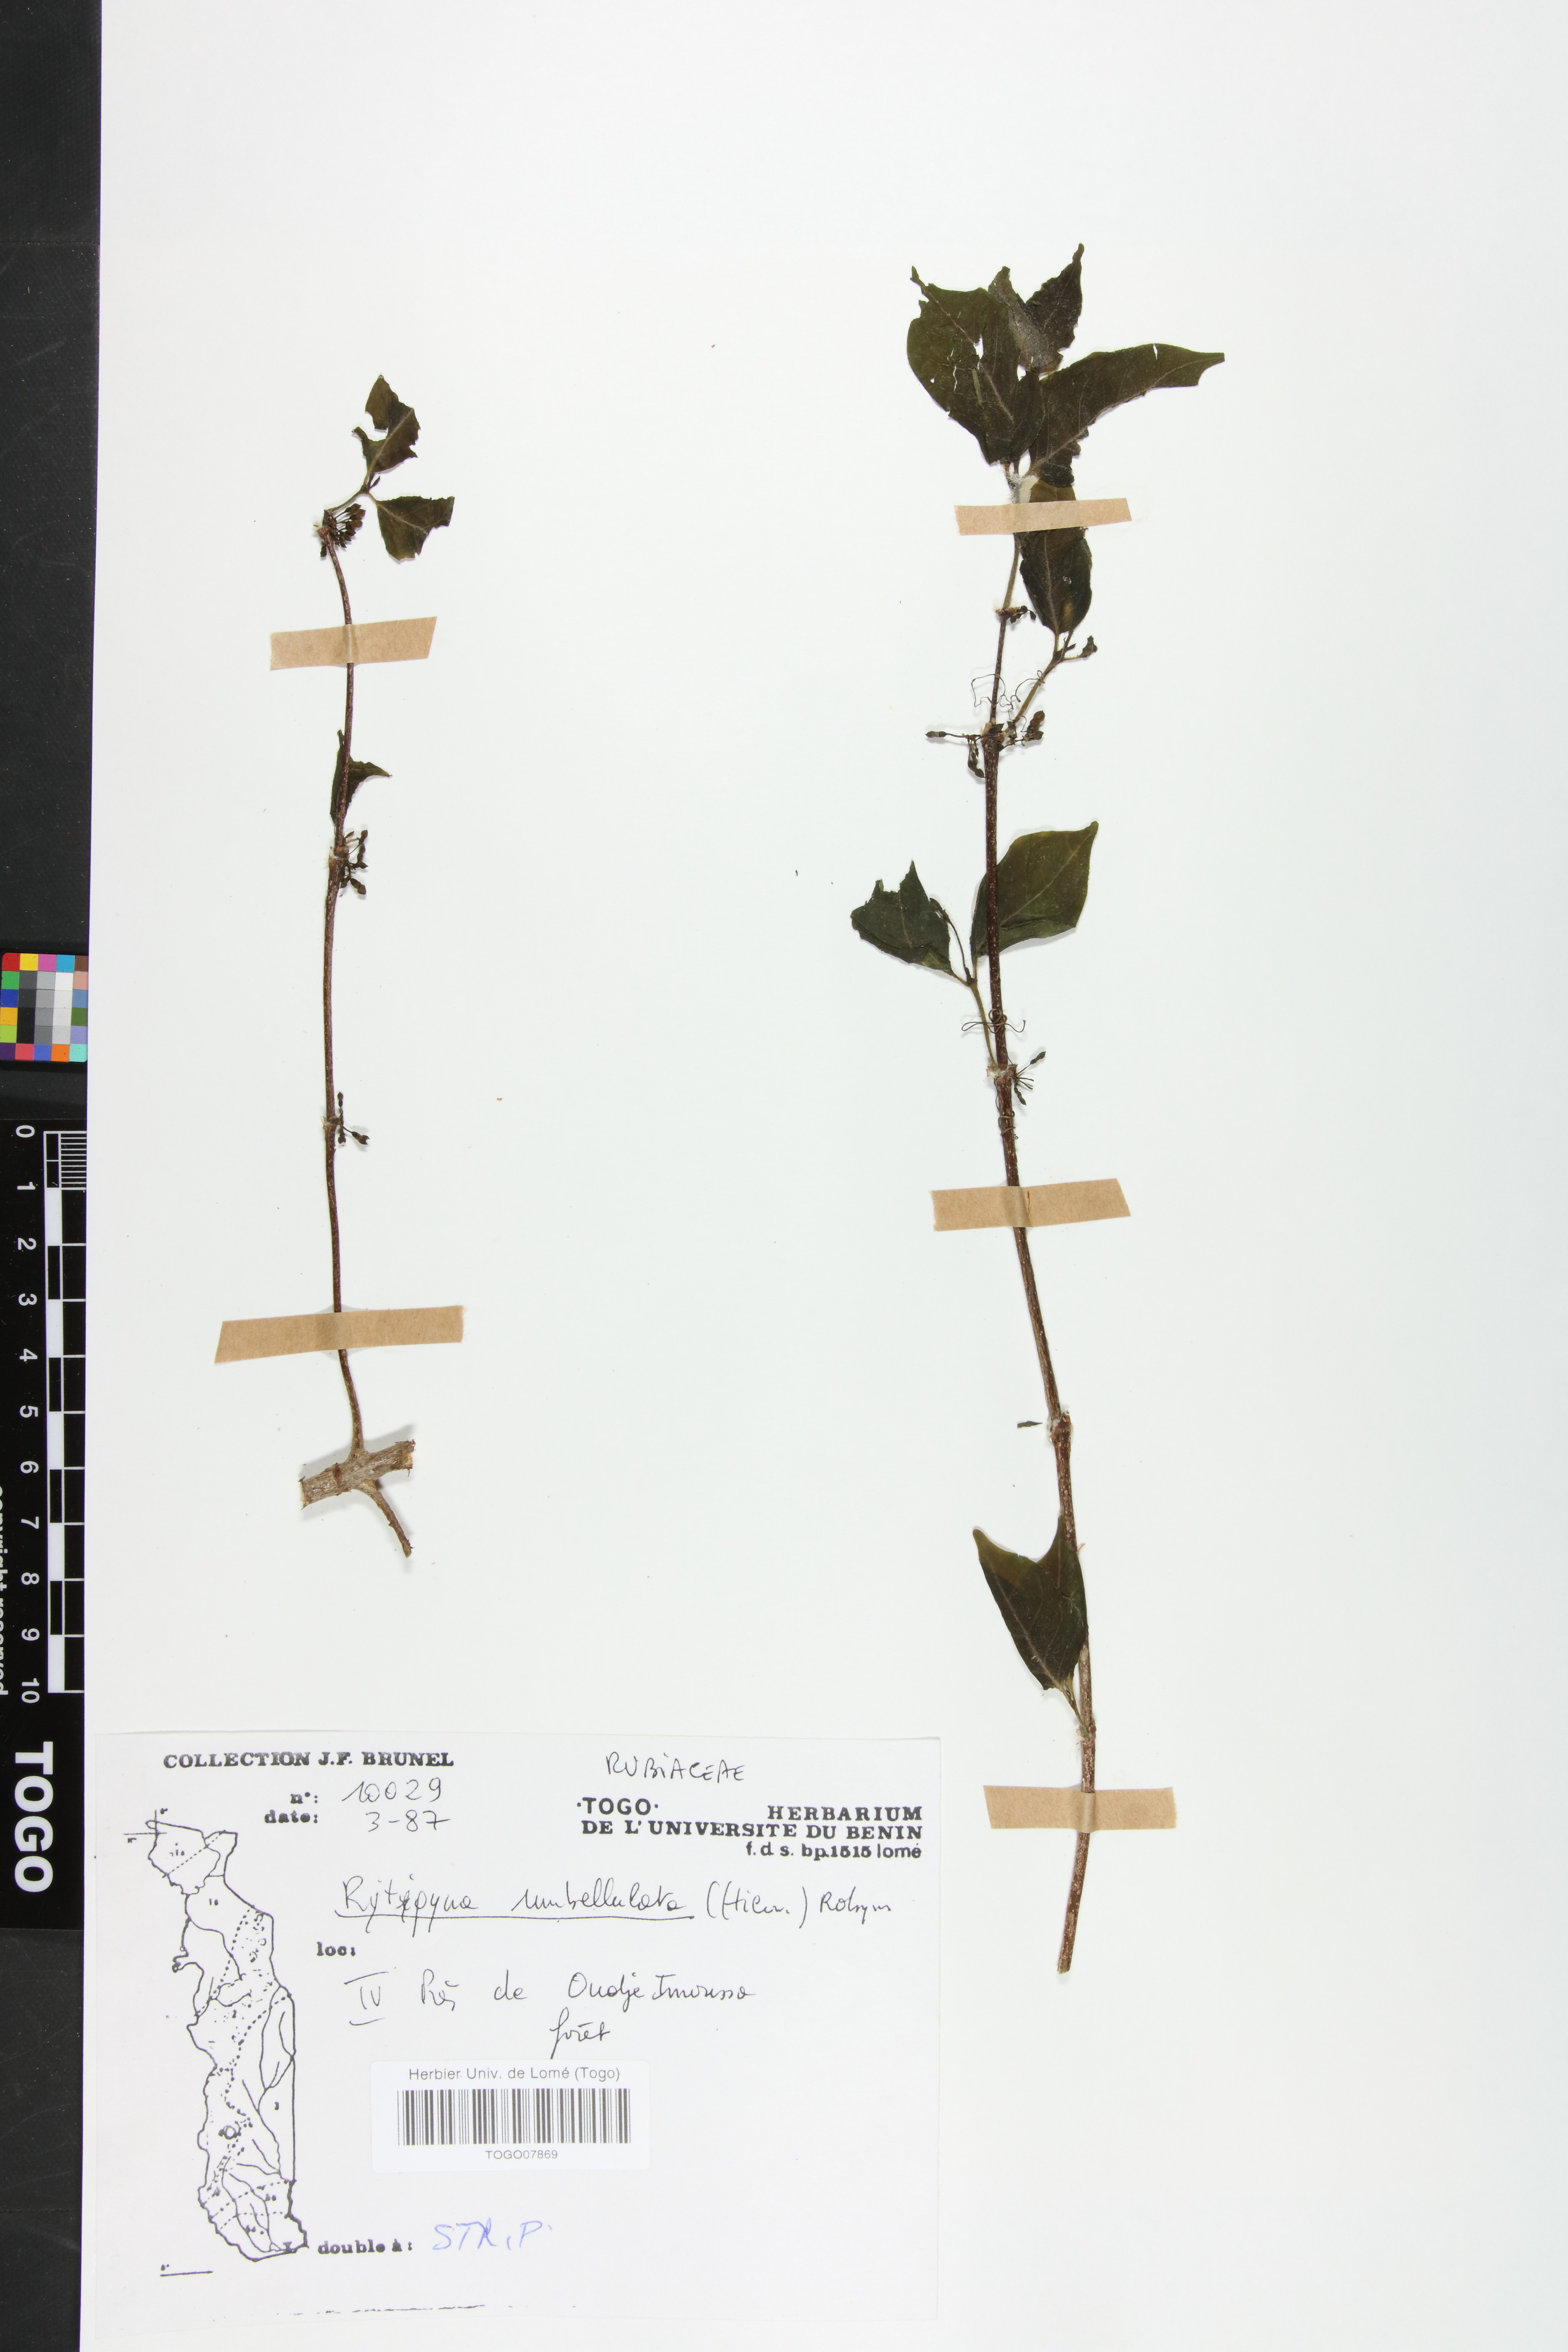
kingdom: Plantae
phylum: Tracheophyta
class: Magnoliopsida
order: Gentianales
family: Rubiaceae
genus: Rytigynia
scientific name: Rytigynia umbellulata
